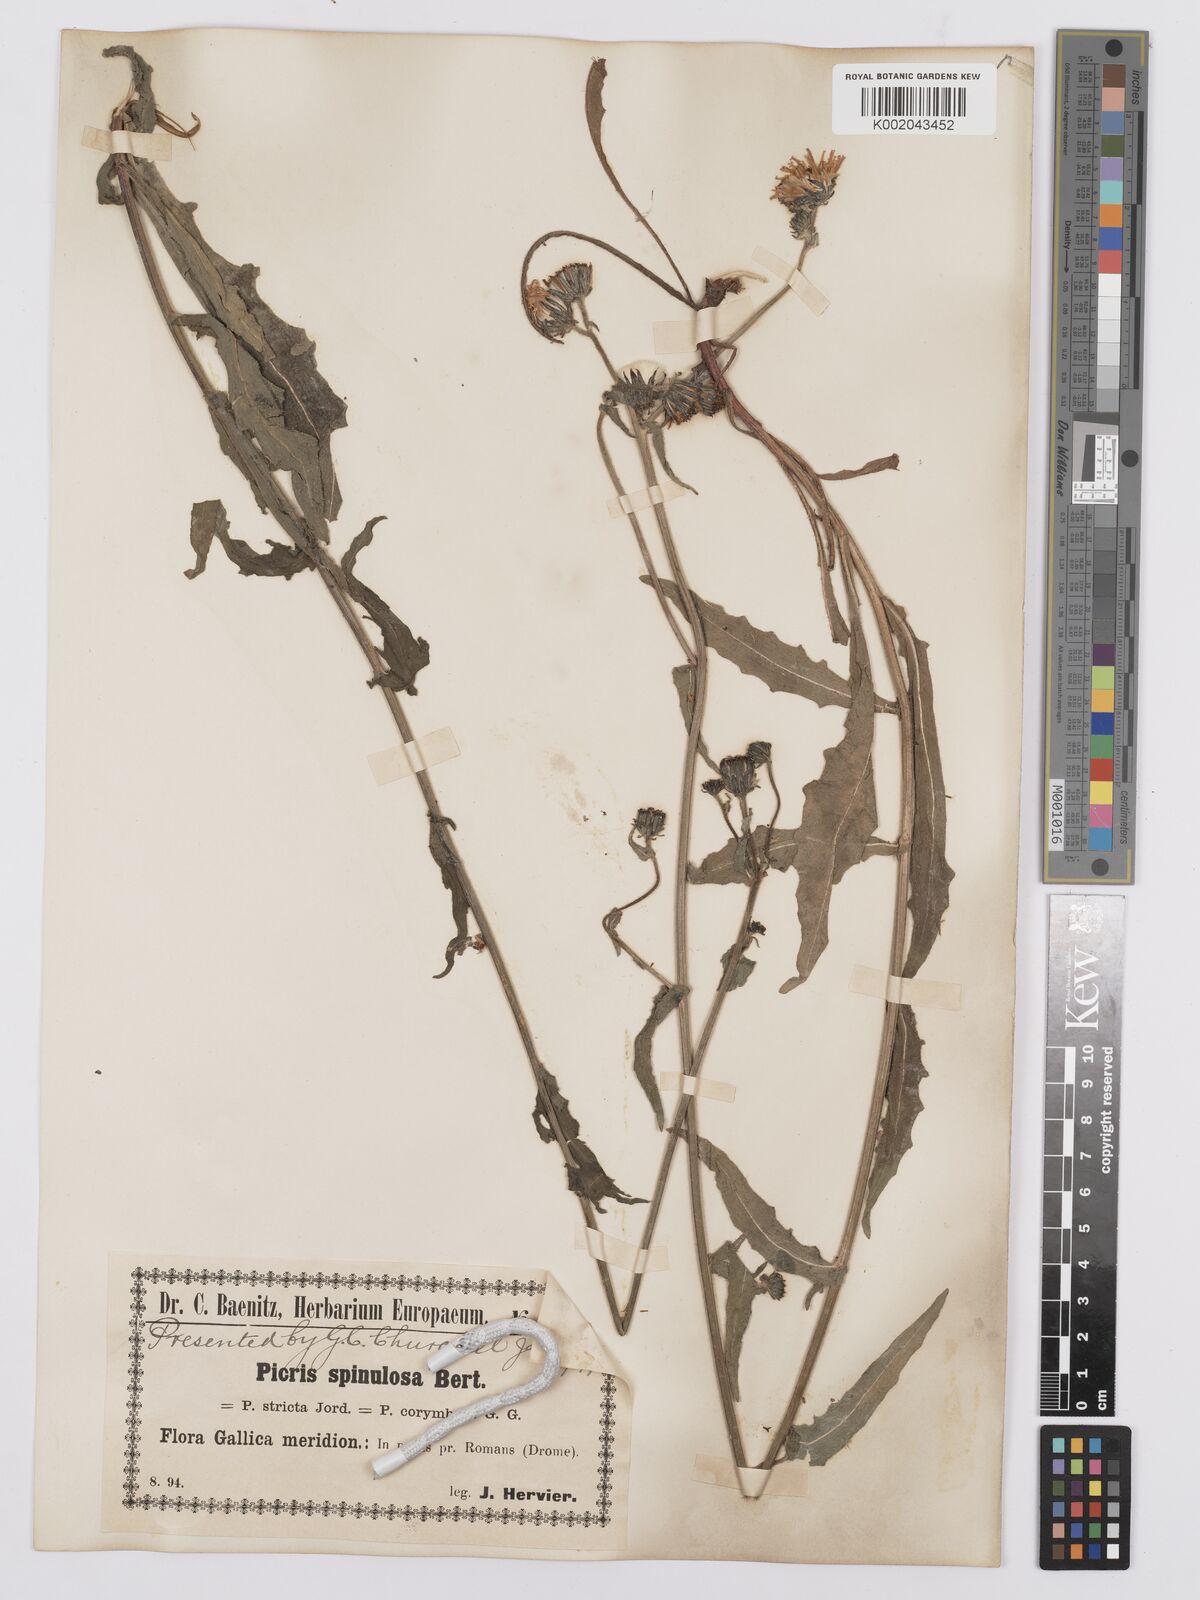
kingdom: Plantae
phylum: Tracheophyta
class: Magnoliopsida
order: Asterales
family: Asteraceae
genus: Picris
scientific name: Picris hieracioides
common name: Hawkweed oxtongue
